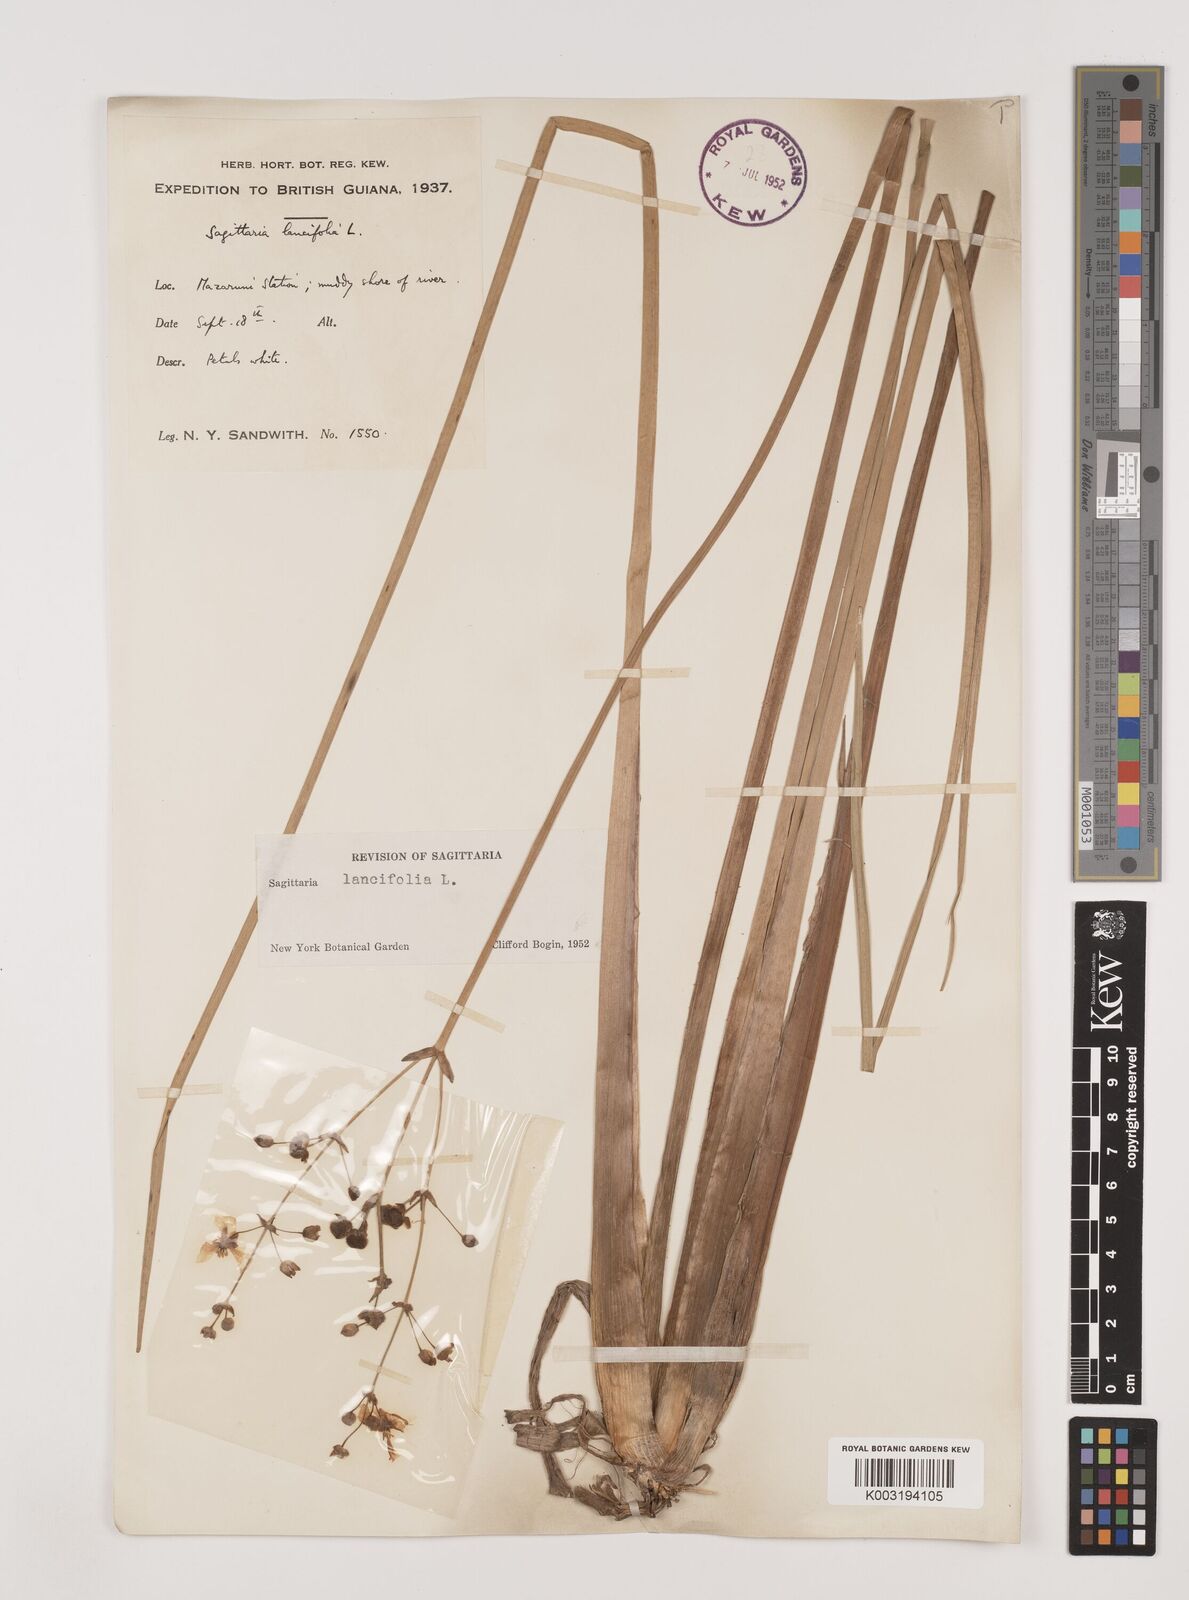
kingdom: Plantae
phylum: Tracheophyta
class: Liliopsida
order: Alismatales
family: Alismataceae
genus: Sagittaria
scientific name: Sagittaria lancifolia
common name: Lance-leaf arrowhead
